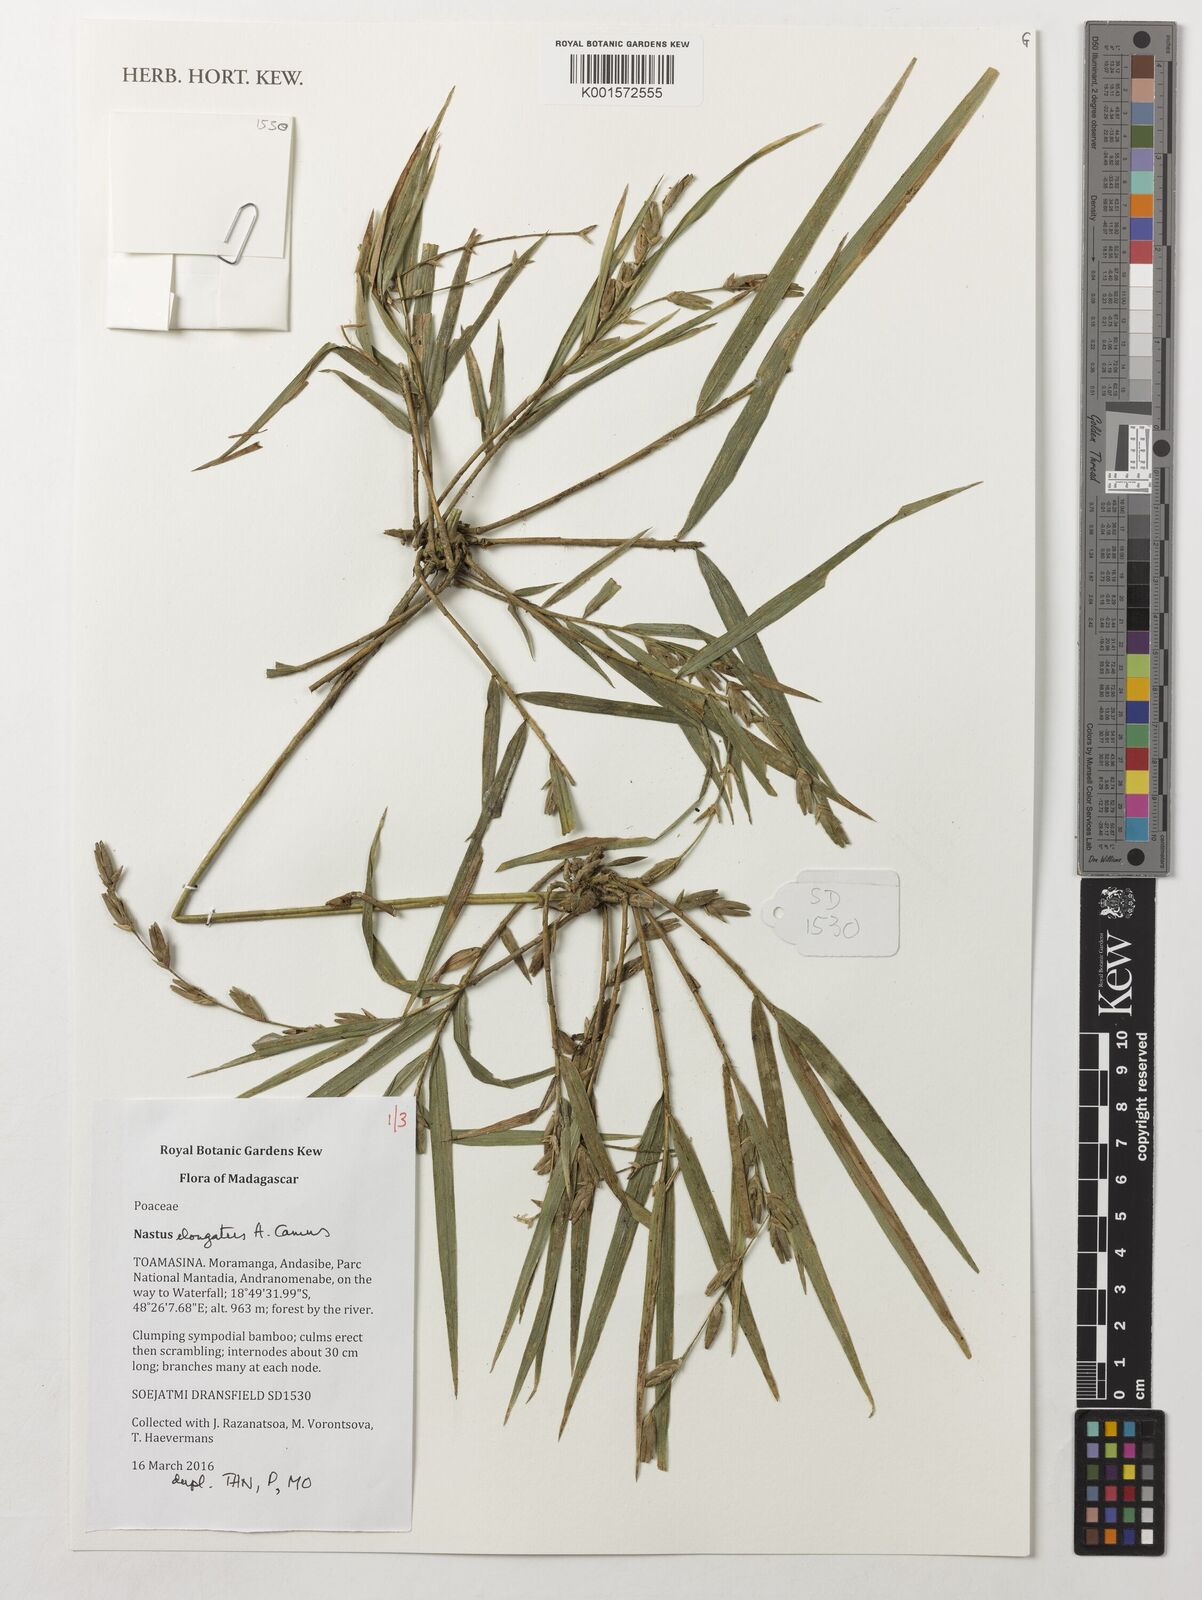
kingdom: Plantae
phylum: Tracheophyta
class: Liliopsida
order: Poales
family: Poaceae
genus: Nastus
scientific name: Nastus elongatus
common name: Spider bamboo
